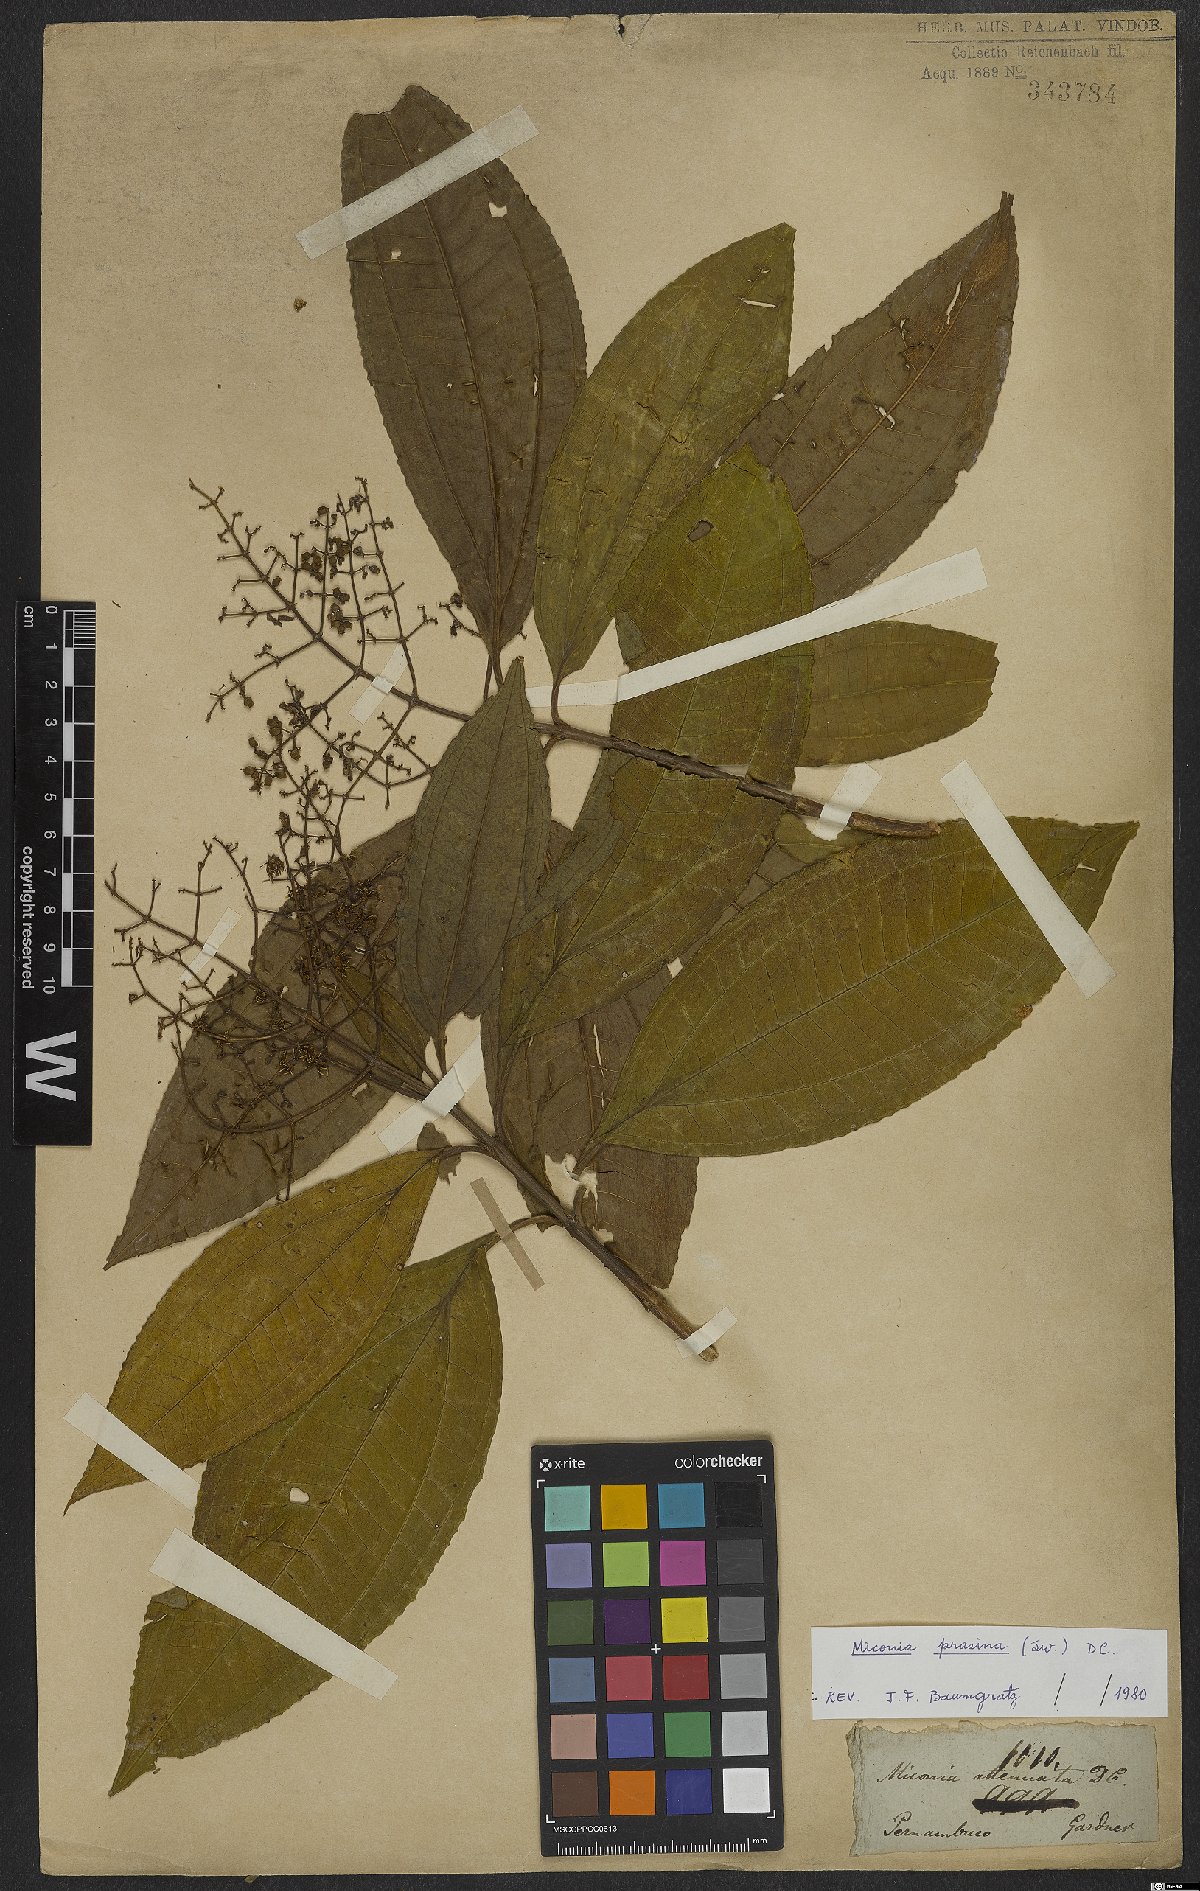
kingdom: Plantae
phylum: Tracheophyta
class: Magnoliopsida
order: Myrtales
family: Melastomataceae
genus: Miconia
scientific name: Miconia prasina
